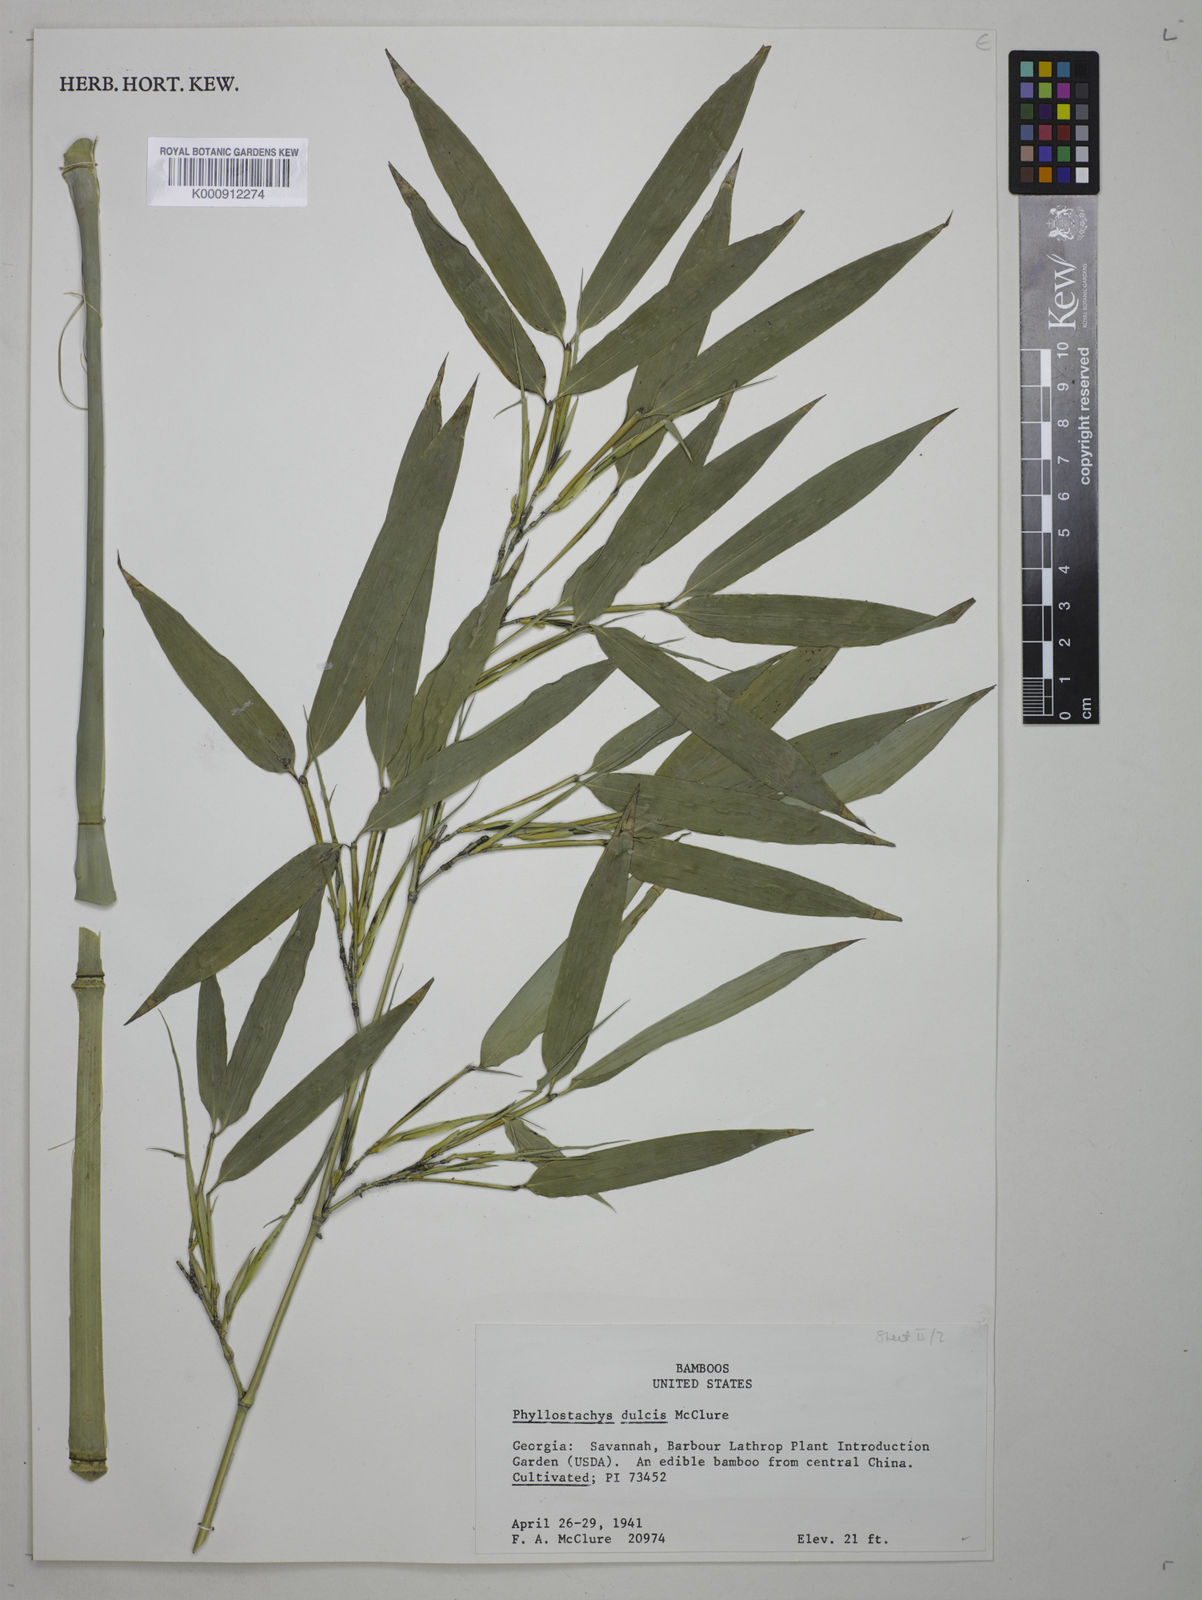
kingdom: Plantae
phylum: Tracheophyta
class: Liliopsida
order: Poales
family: Poaceae
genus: Phyllostachys
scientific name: Phyllostachys dulcis
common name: Sweetshoot bamboo
